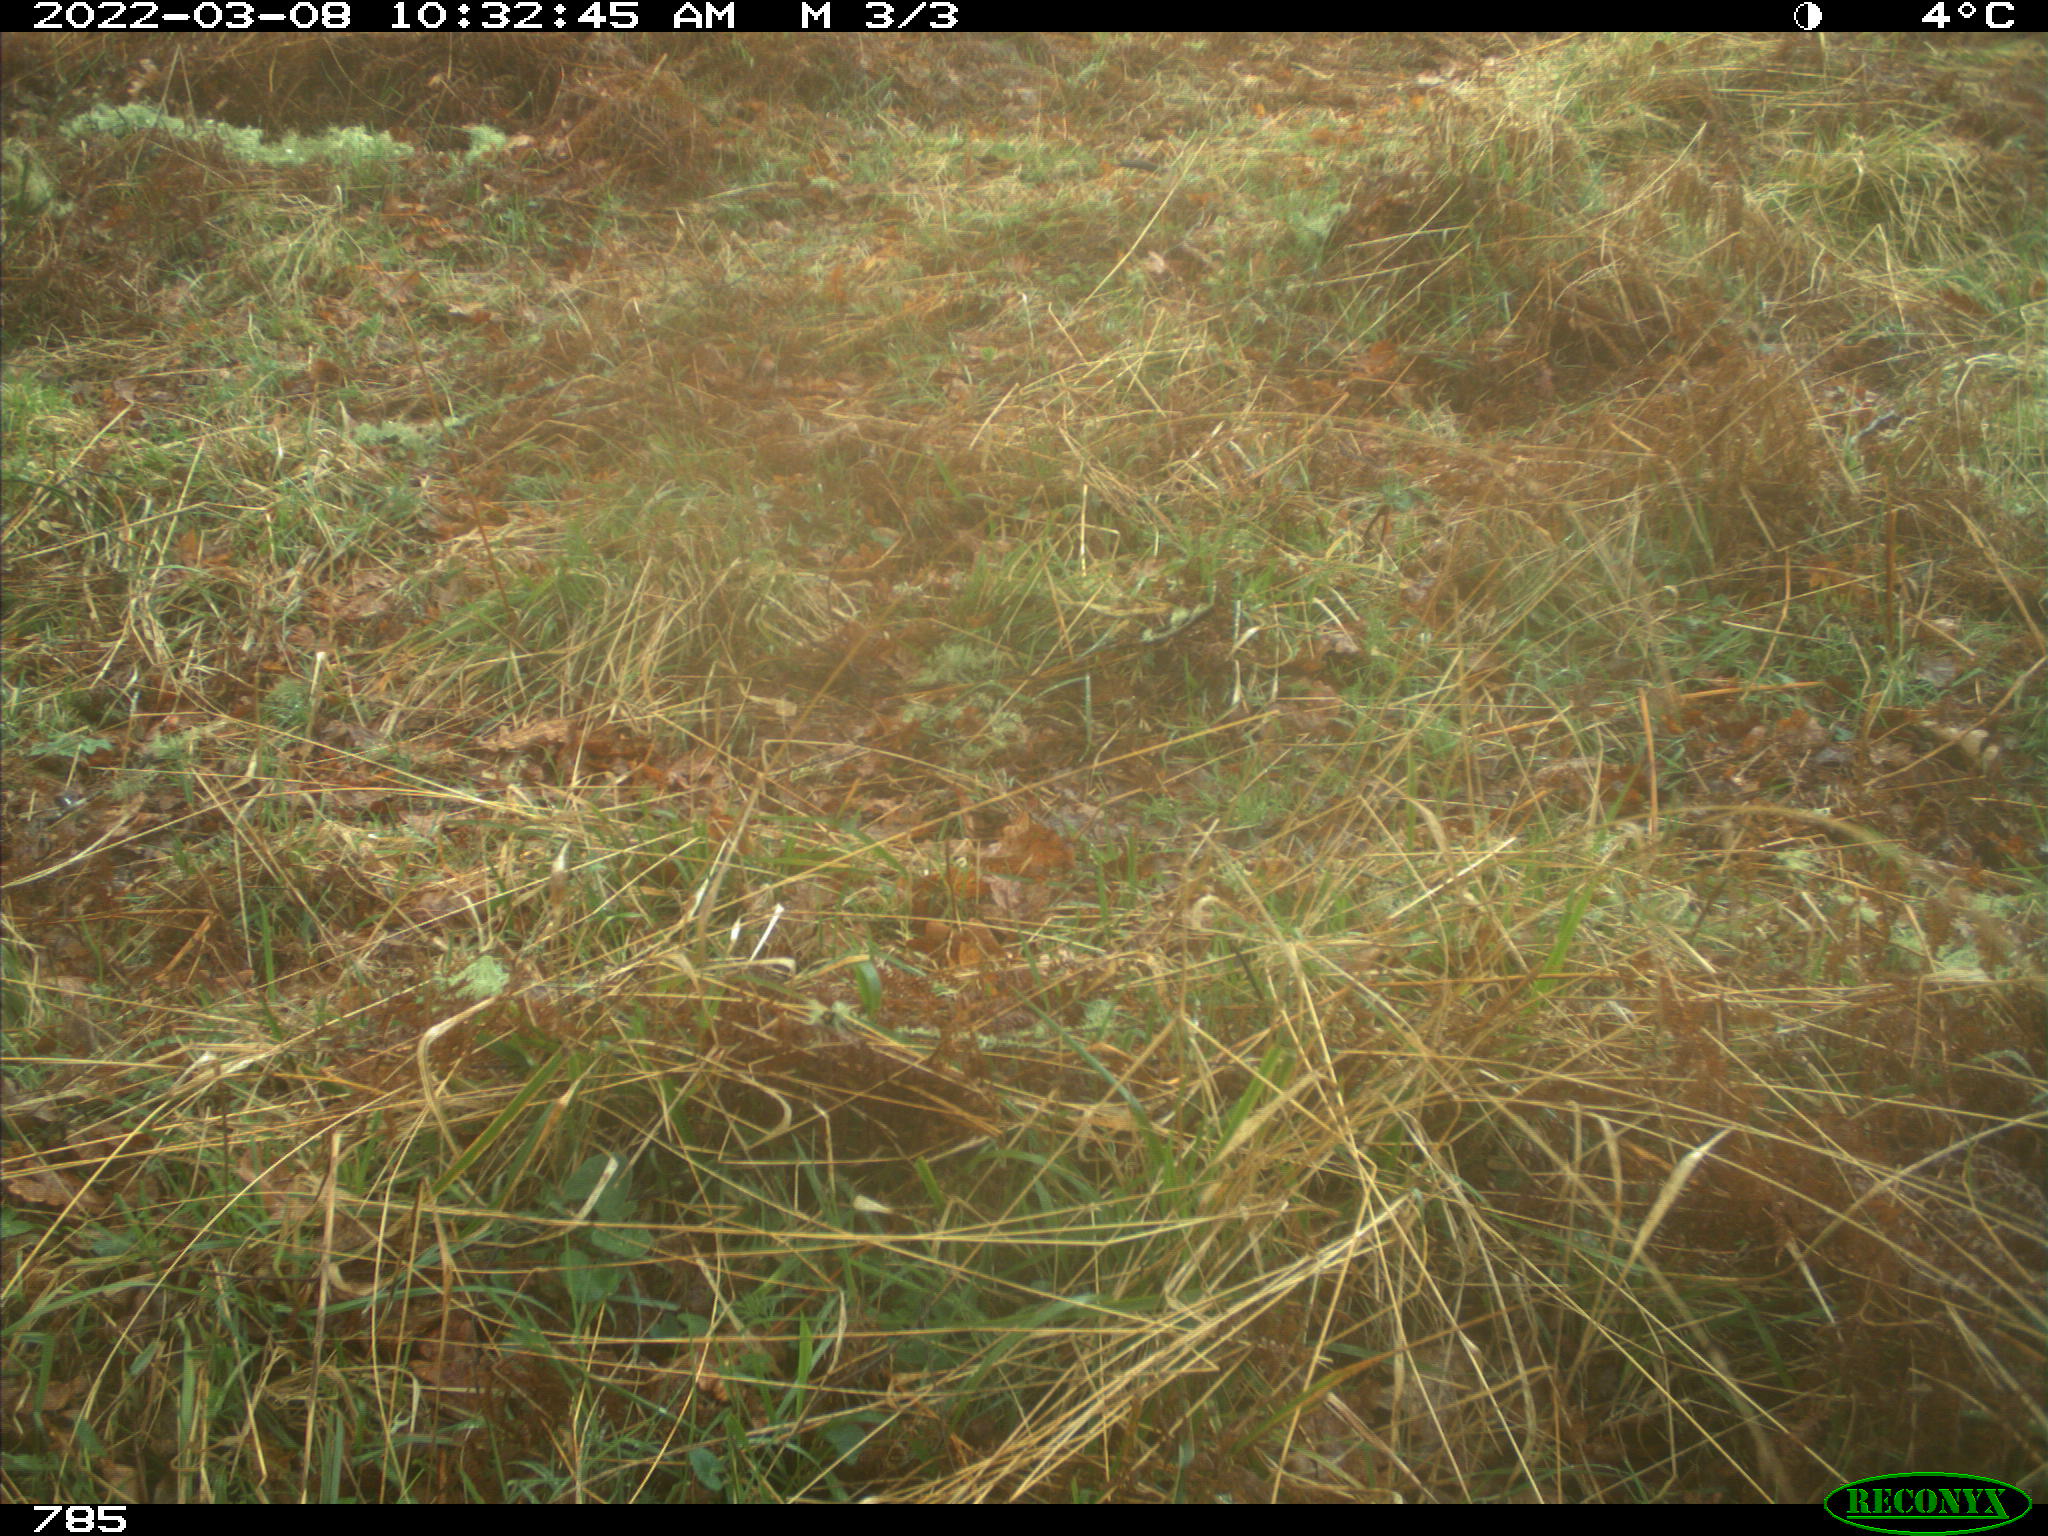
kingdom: Animalia
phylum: Chordata
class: Mammalia
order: Perissodactyla
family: Equidae
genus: Equus
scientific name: Equus caballus
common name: Horse
